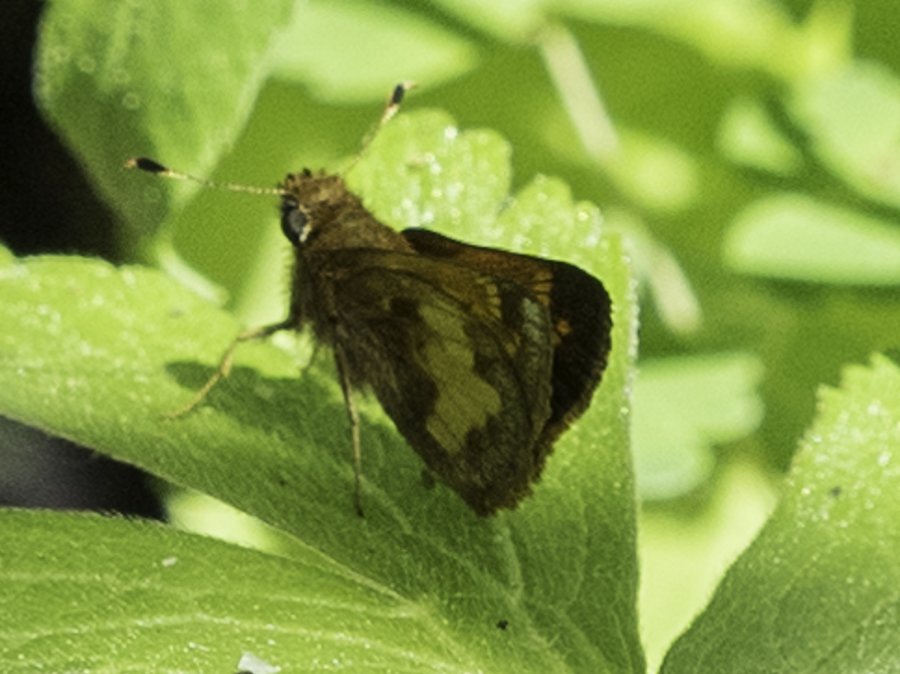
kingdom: Animalia
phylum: Arthropoda
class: Insecta
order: Lepidoptera
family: Hesperiidae
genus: Lon
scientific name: Lon hobomok
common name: Hobomok Skipper
